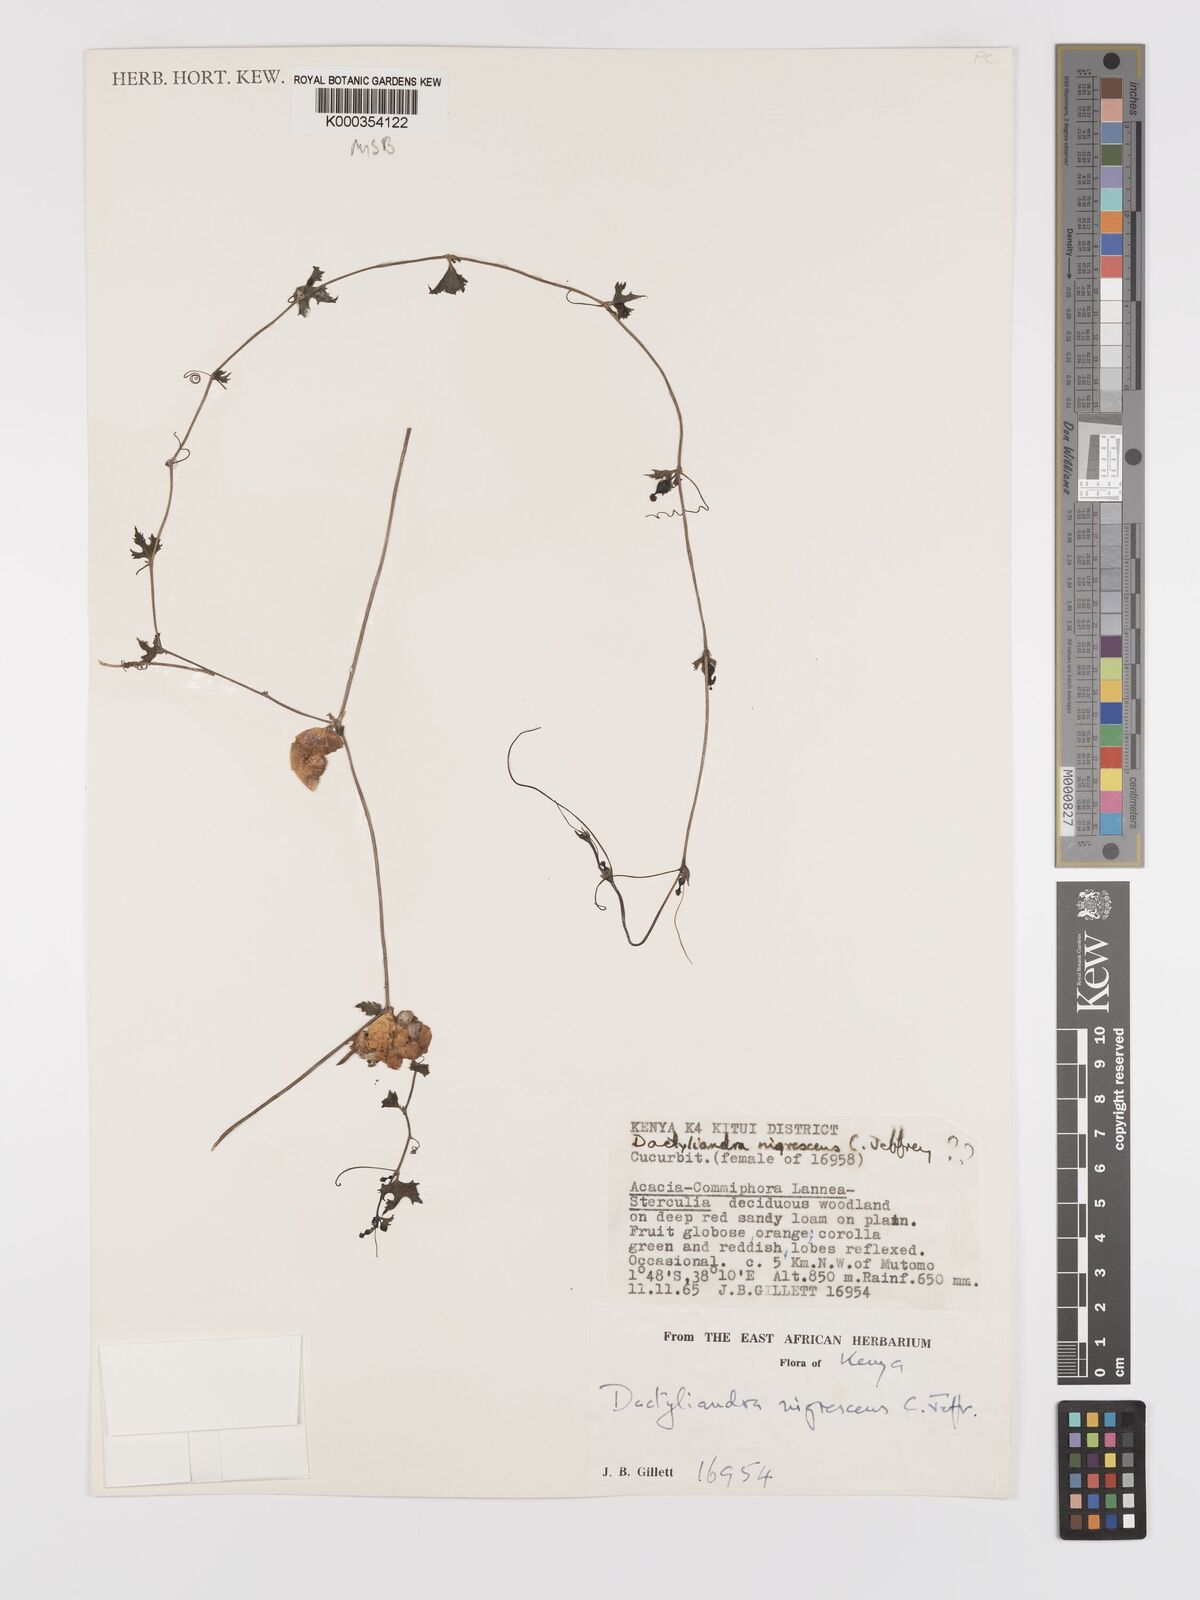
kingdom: Plantae
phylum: Tracheophyta
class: Magnoliopsida
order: Cucurbitales
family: Cucurbitaceae
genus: Trochomeria
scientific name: Trochomeria nigrescens
